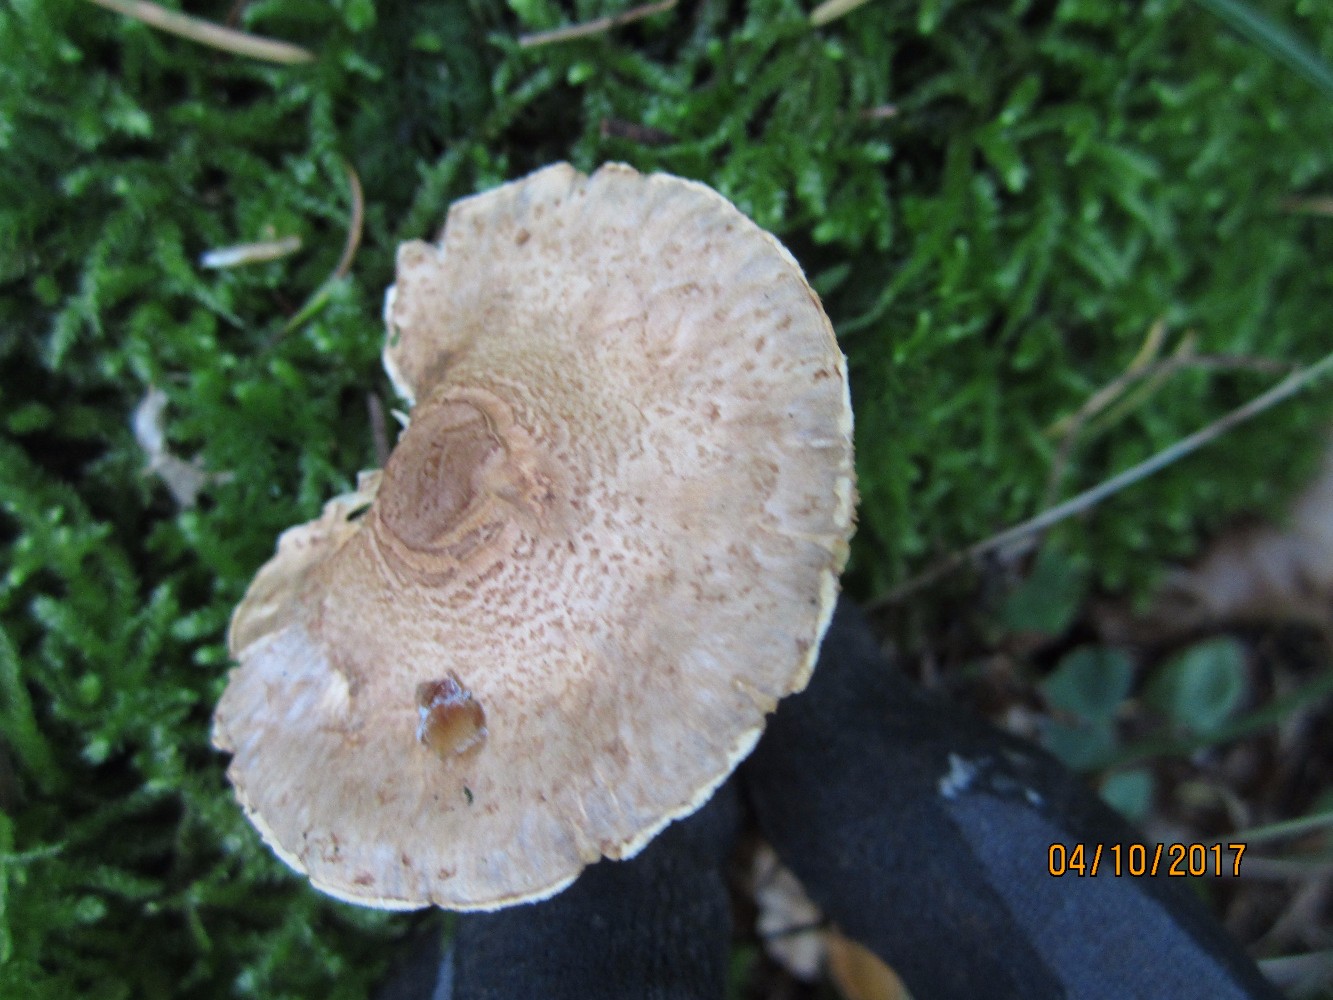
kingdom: Fungi
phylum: Basidiomycota
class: Agaricomycetes
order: Agaricales
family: Agaricaceae
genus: Lepiota
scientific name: Lepiota magnispora
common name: gulfnugget parasolhat
